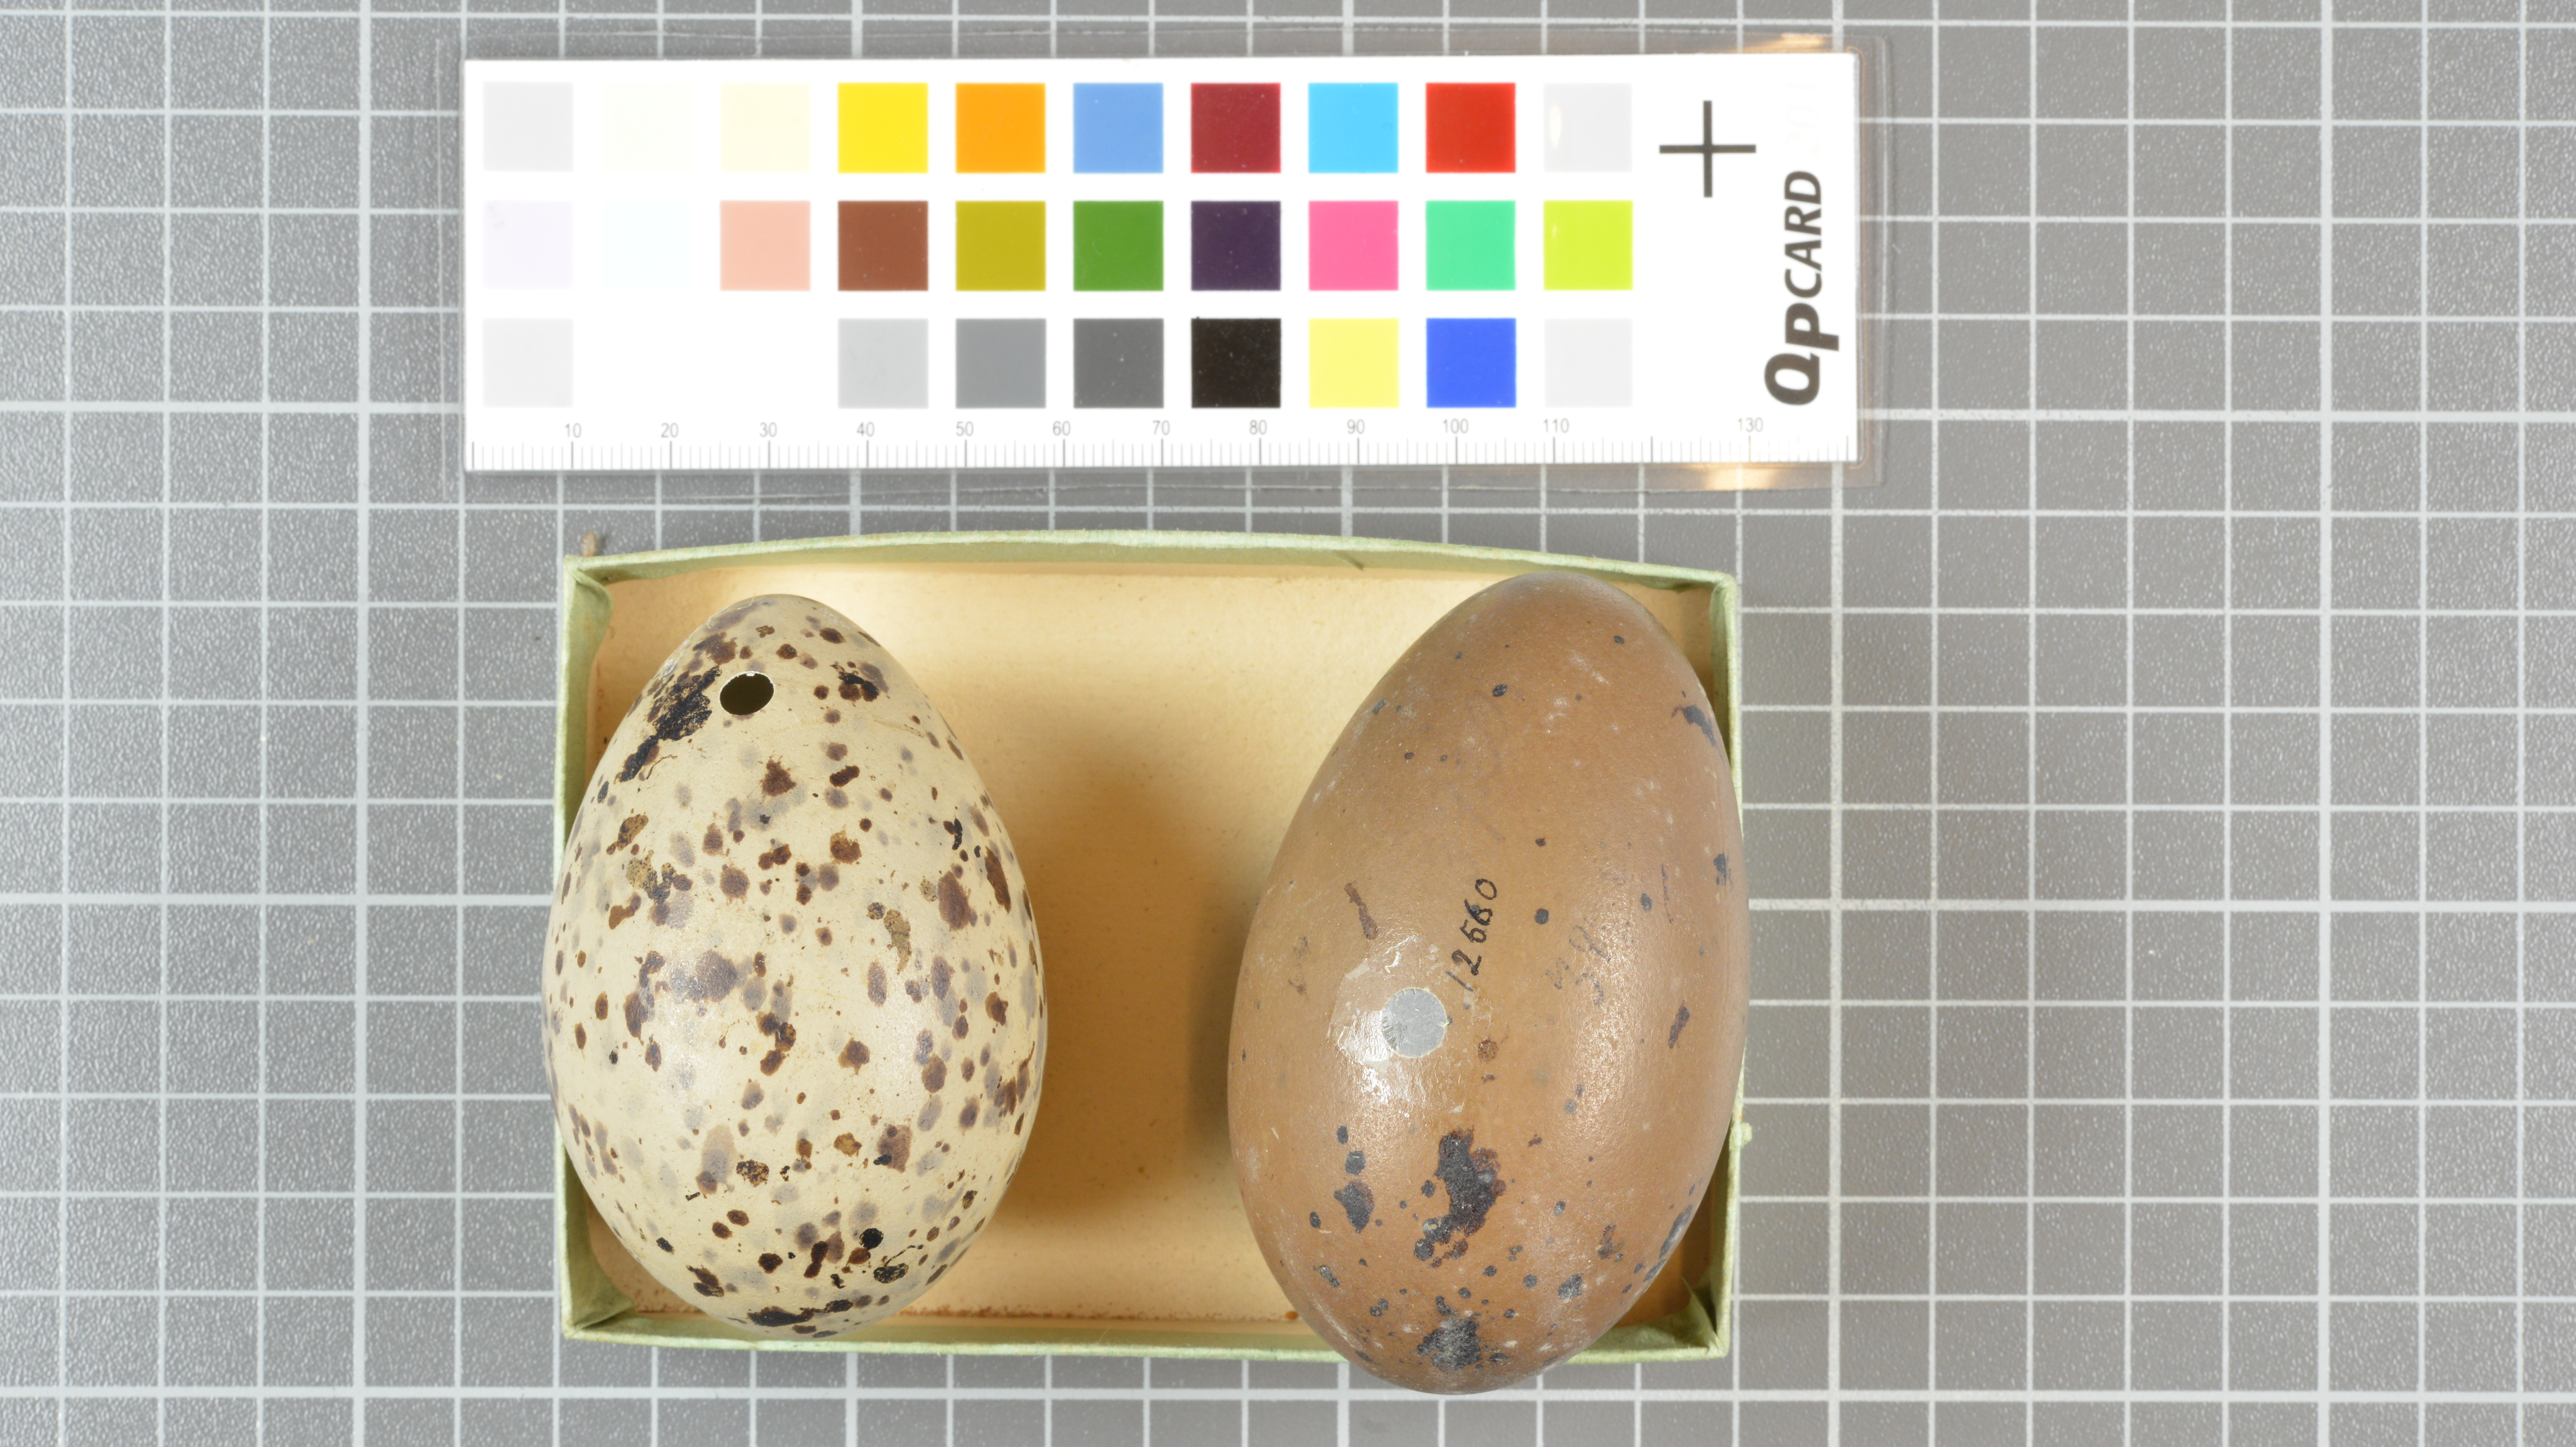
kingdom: Animalia
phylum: Chordata
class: Aves
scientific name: Aves
